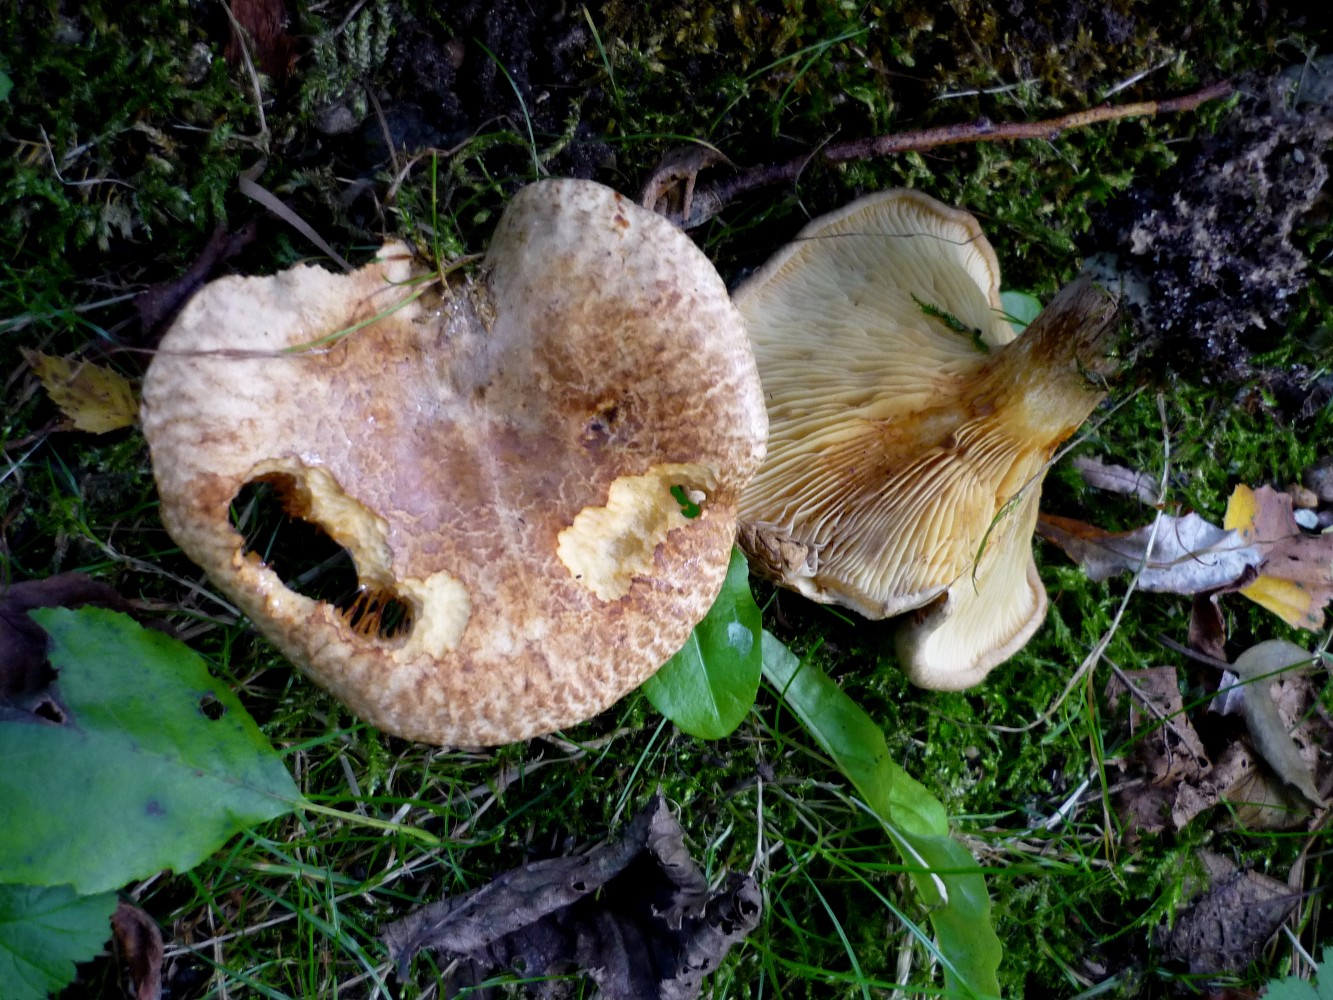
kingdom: Fungi
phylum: Basidiomycota
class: Agaricomycetes
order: Boletales
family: Paxillaceae
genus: Paxillus
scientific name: Paxillus rubicundulus
